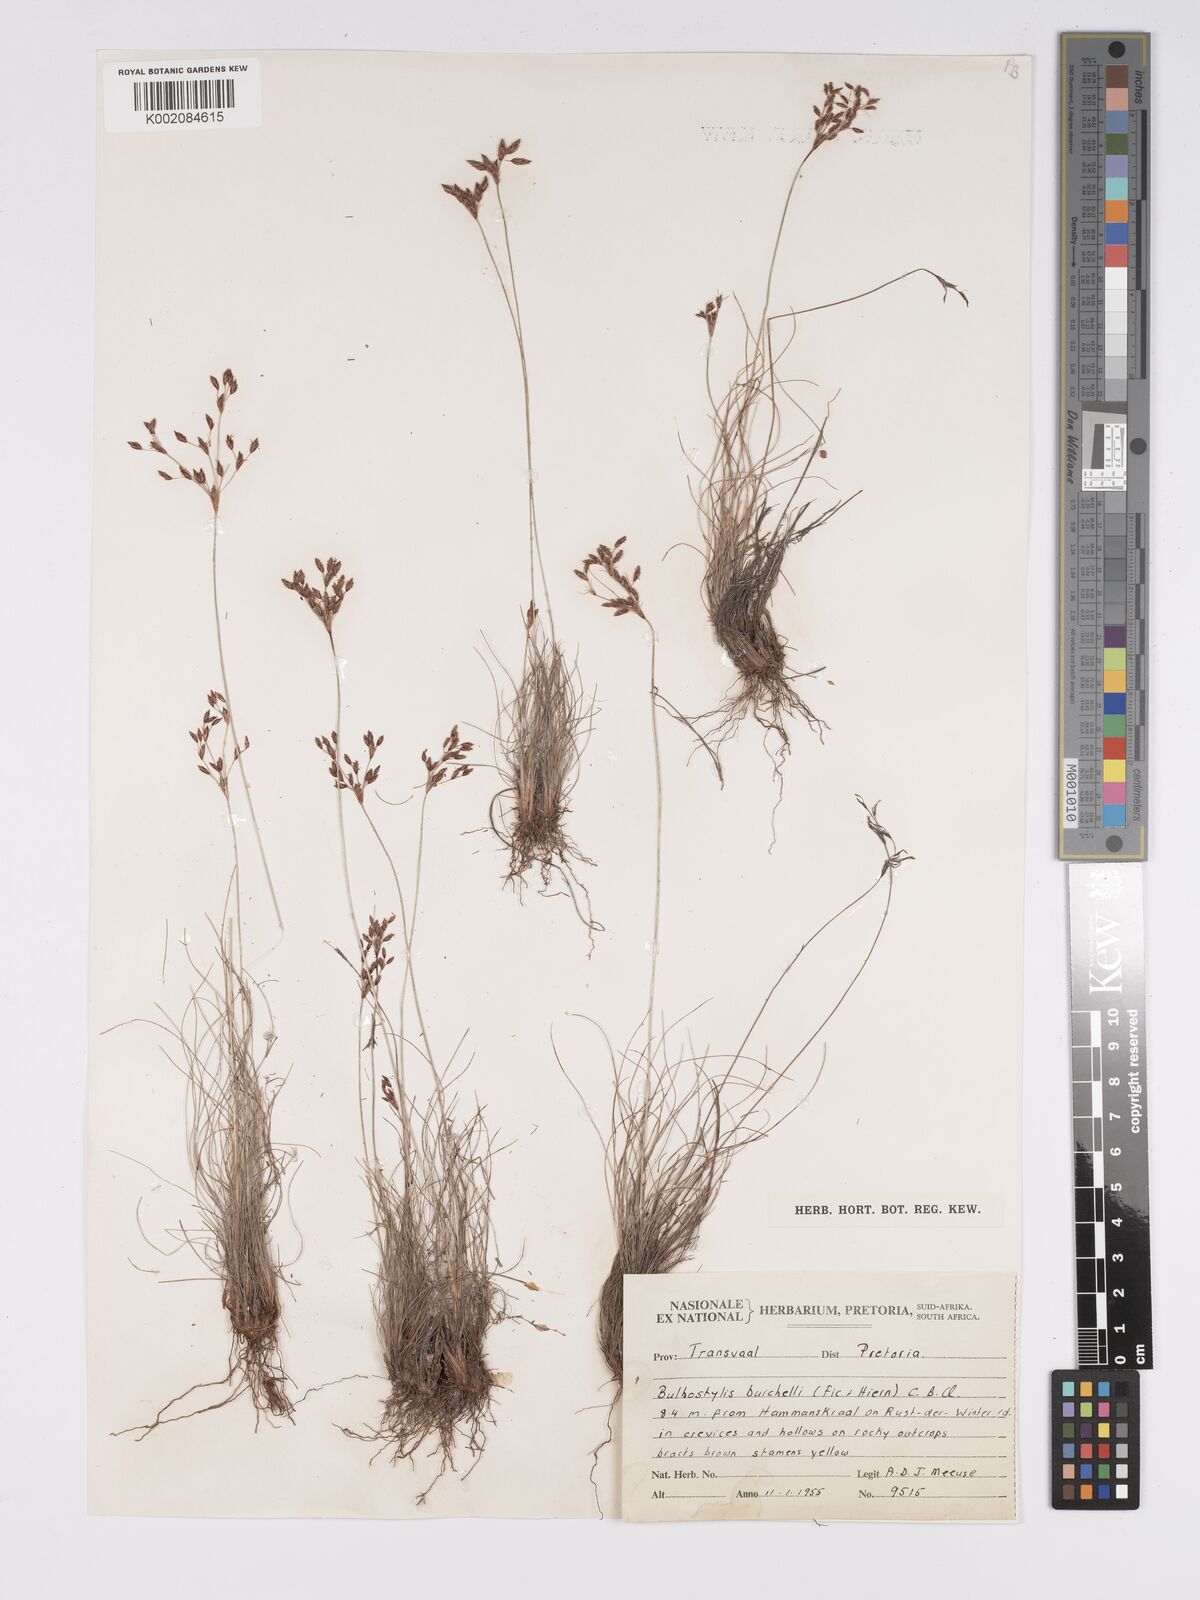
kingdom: Plantae
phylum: Tracheophyta
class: Liliopsida
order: Poales
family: Cyperaceae
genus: Bulbostylis
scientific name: Bulbostylis burchellii
